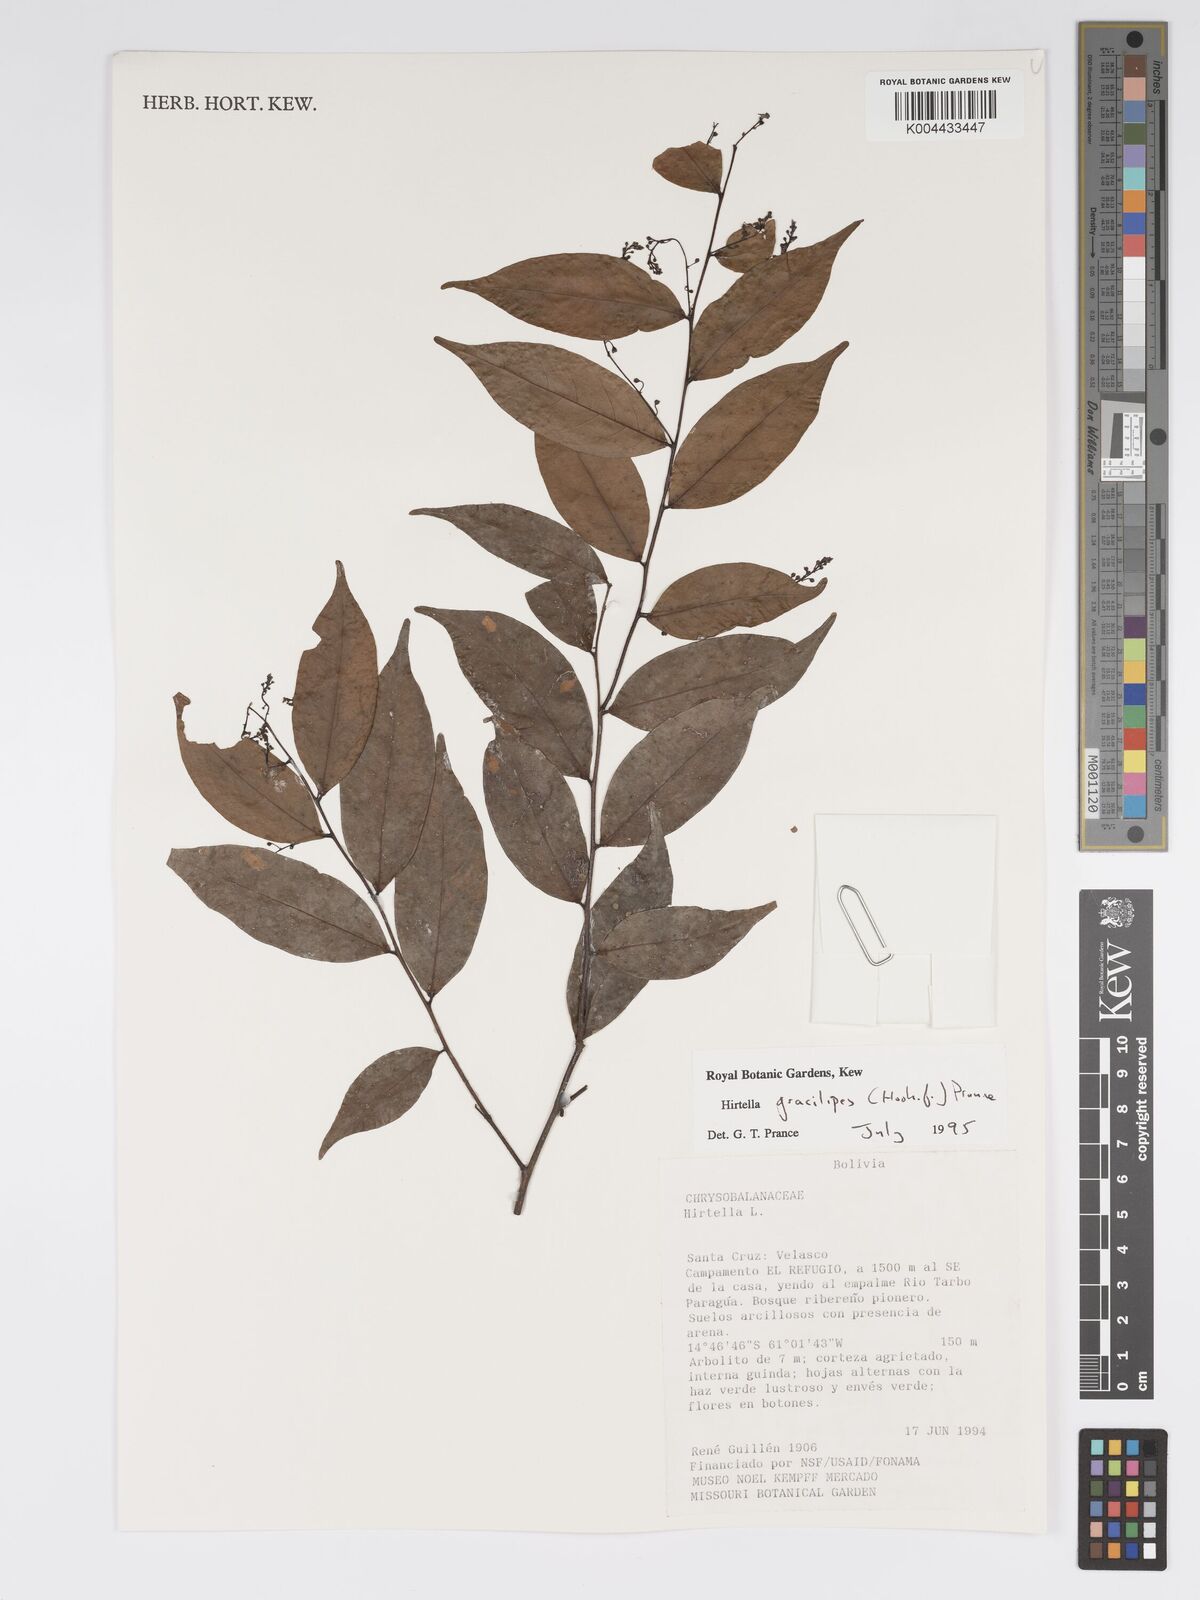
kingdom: Plantae
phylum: Tracheophyta
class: Magnoliopsida
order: Malpighiales
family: Chrysobalanaceae
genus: Hirtella
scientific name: Hirtella gracilipes
